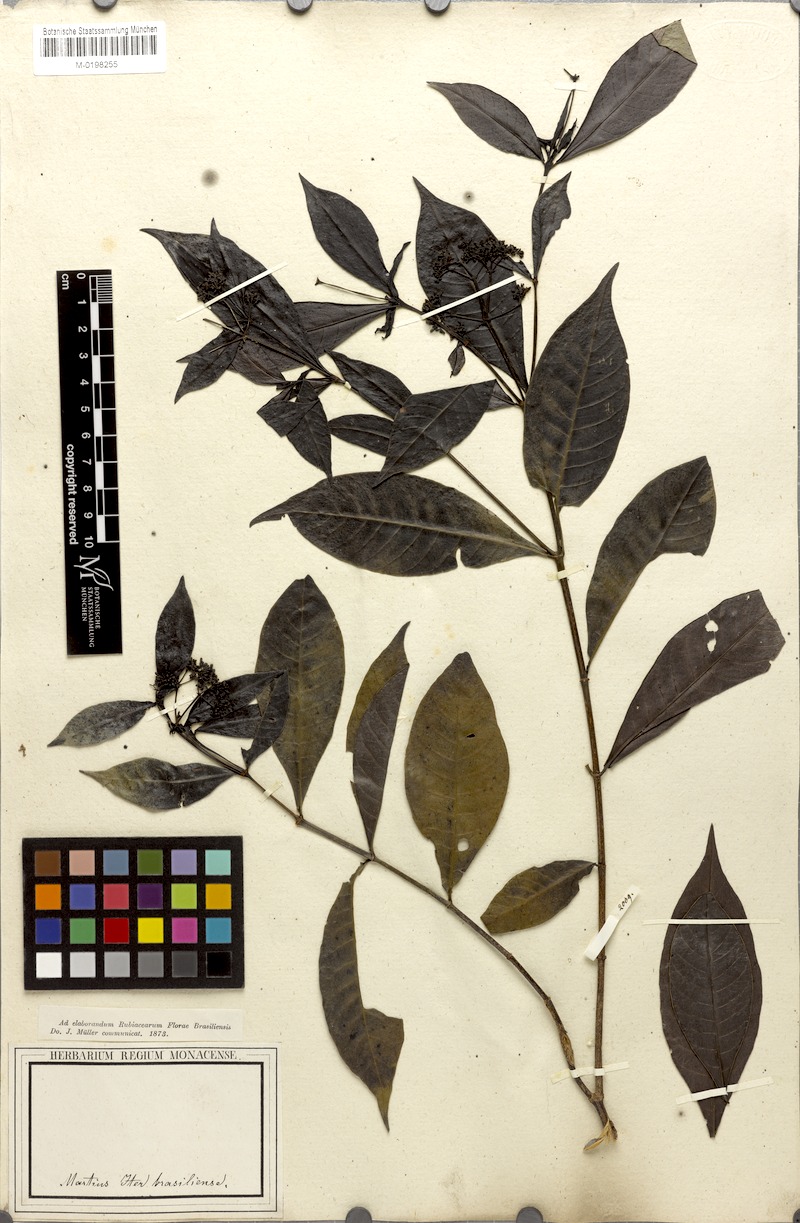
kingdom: Plantae
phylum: Tracheophyta
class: Magnoliopsida
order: Gentianales
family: Rubiaceae
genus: Psychotria
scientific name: Psychotria Mapouria lurida
